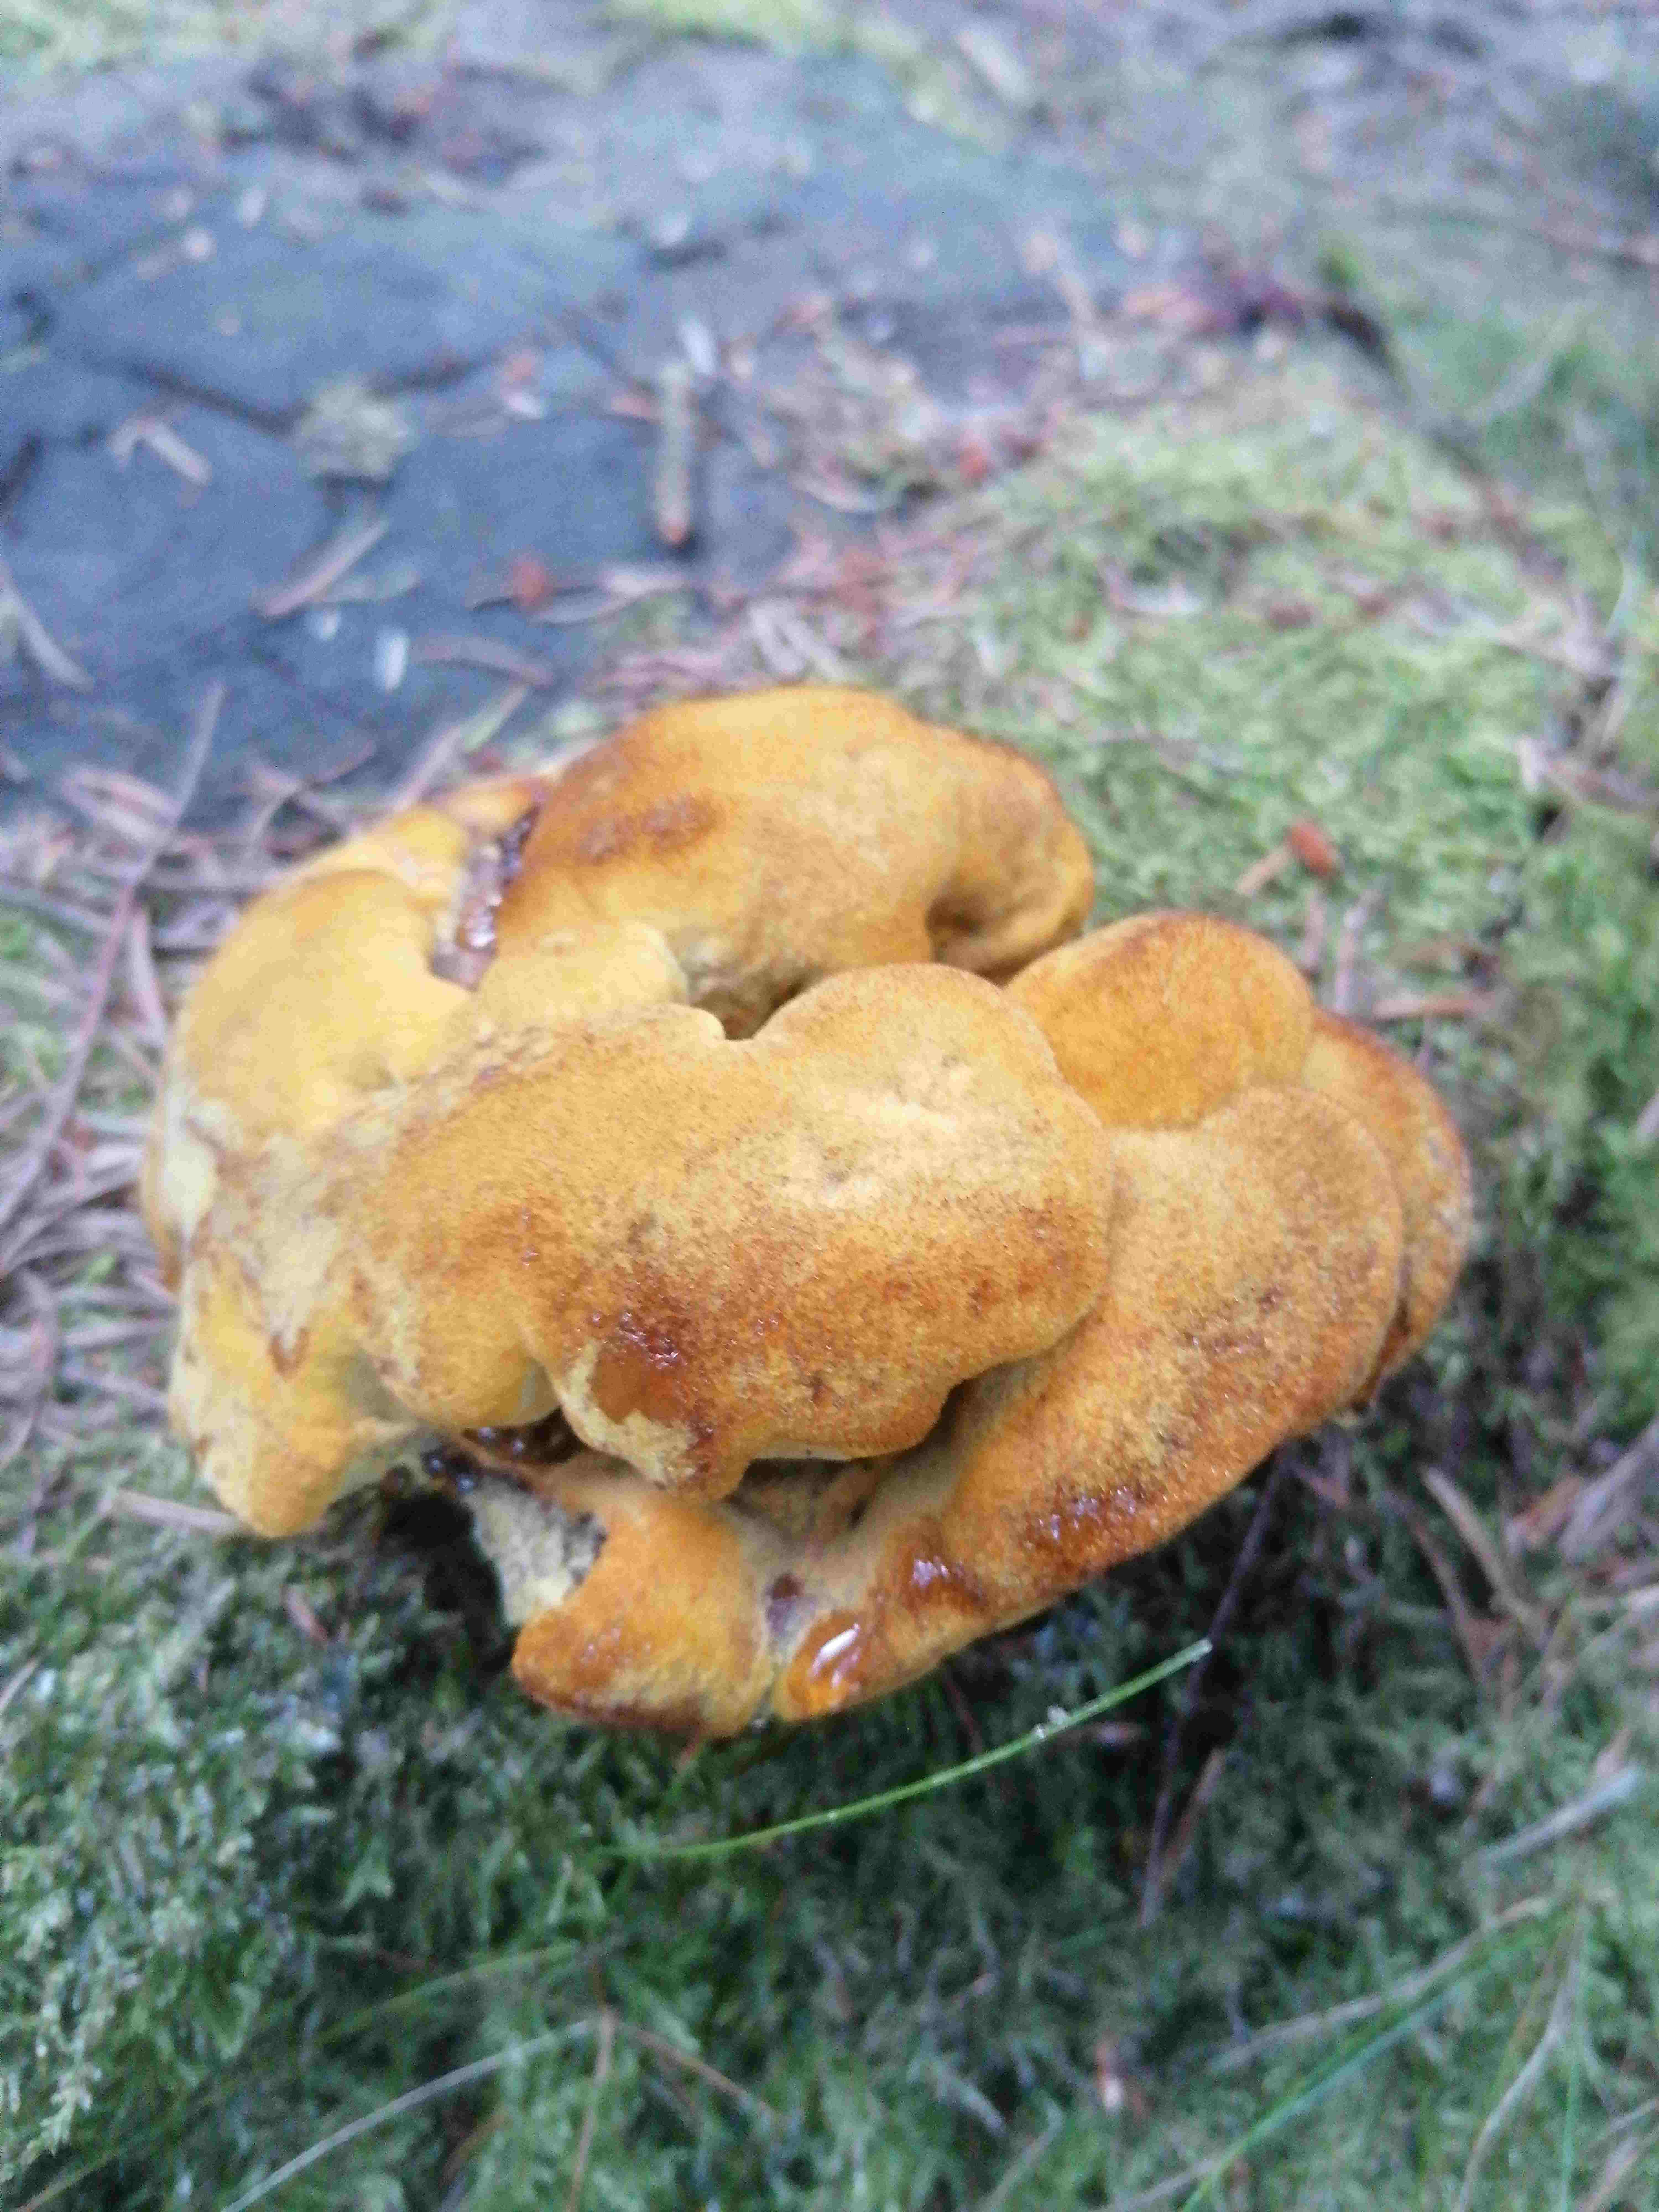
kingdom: Fungi
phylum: Basidiomycota
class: Agaricomycetes
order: Polyporales
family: Laetiporaceae
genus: Phaeolus
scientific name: Phaeolus schweinitzii
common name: brunporesvamp
